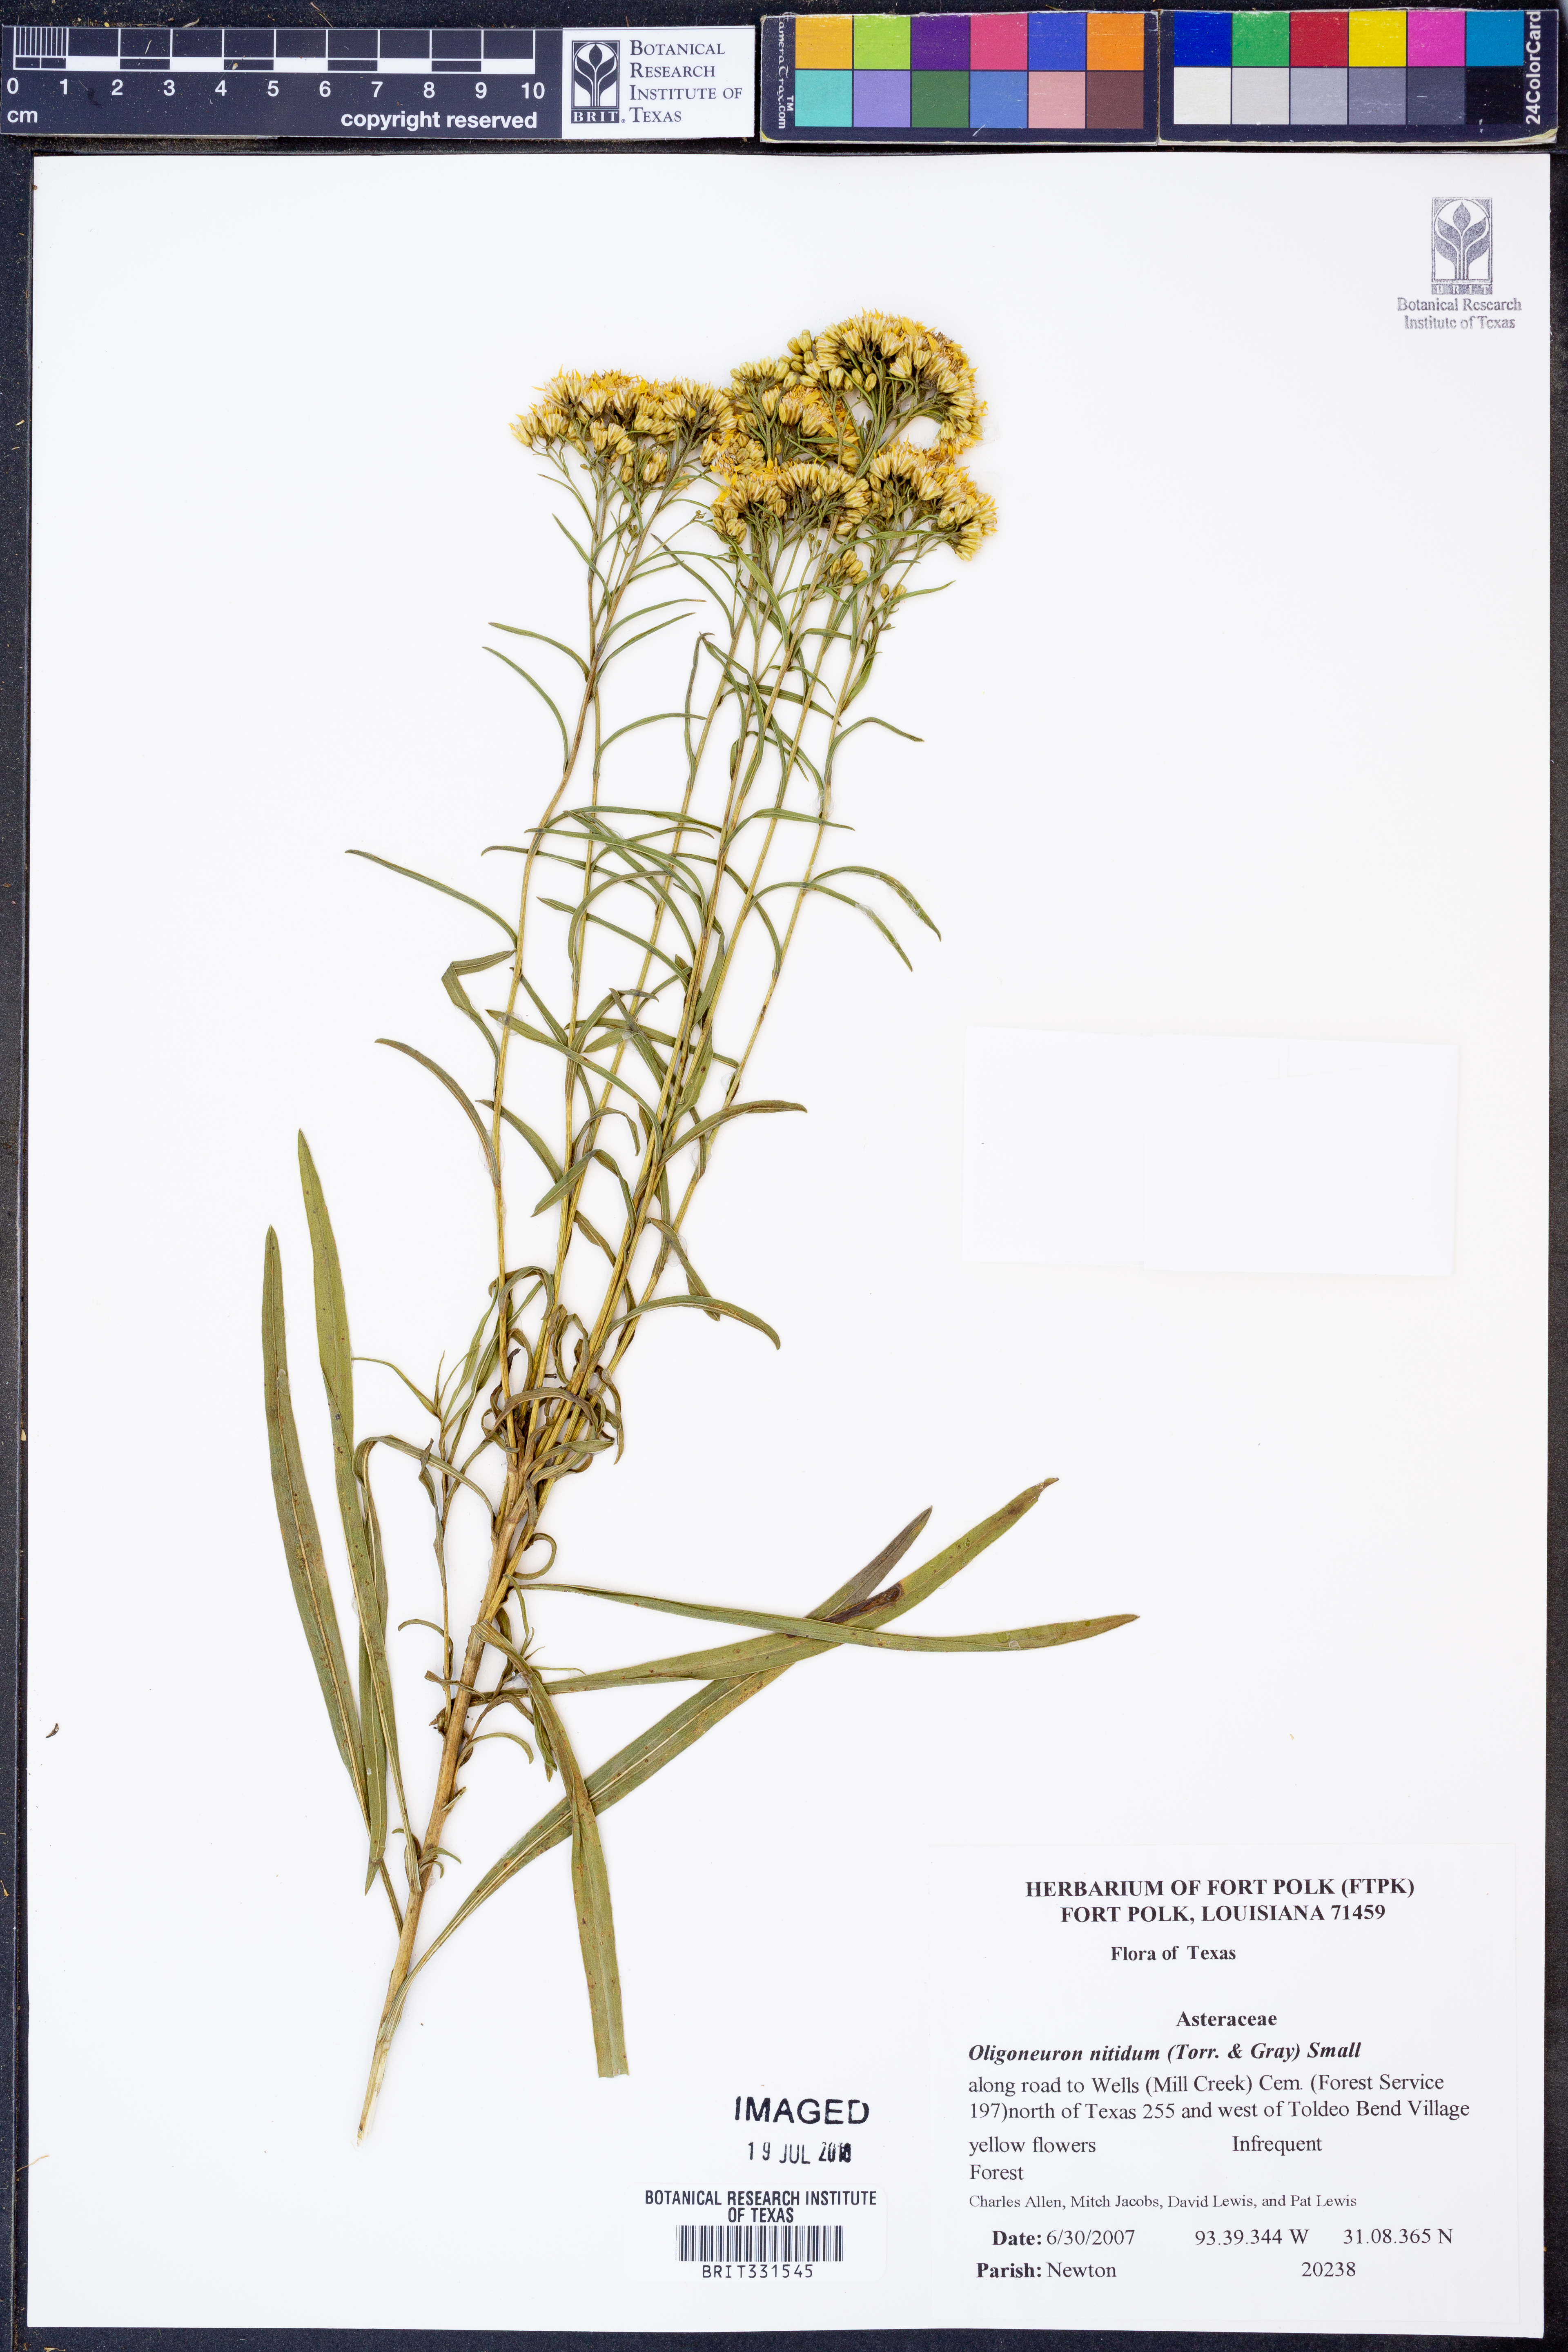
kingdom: Plantae
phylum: Tracheophyta
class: Magnoliopsida
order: Asterales
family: Asteraceae
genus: Solidago
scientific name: Solidago nitida
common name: Shiny goldenrod
